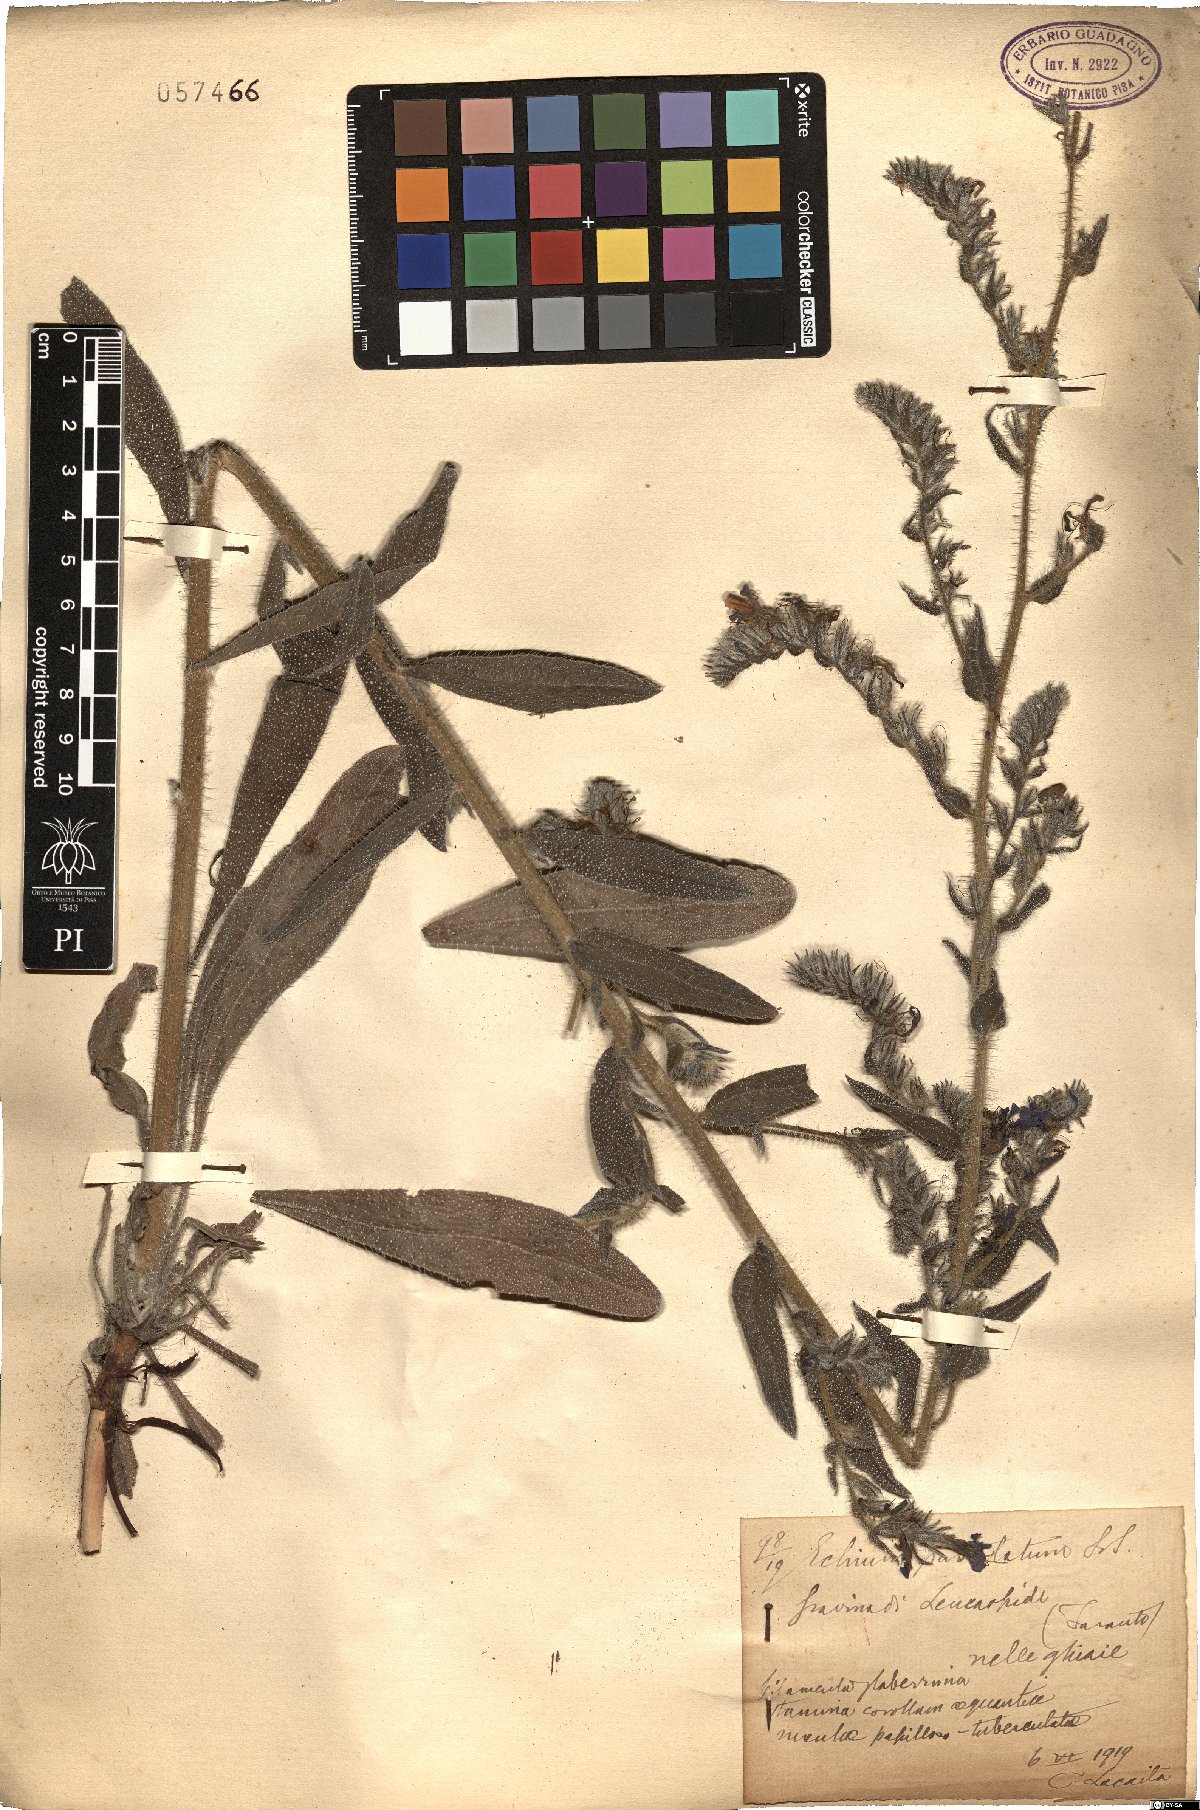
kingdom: Plantae
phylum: Tracheophyta
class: Magnoliopsida
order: Boraginales
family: Boraginaceae
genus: Echium
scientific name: Echium vulgare
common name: Common viper's bugloss
